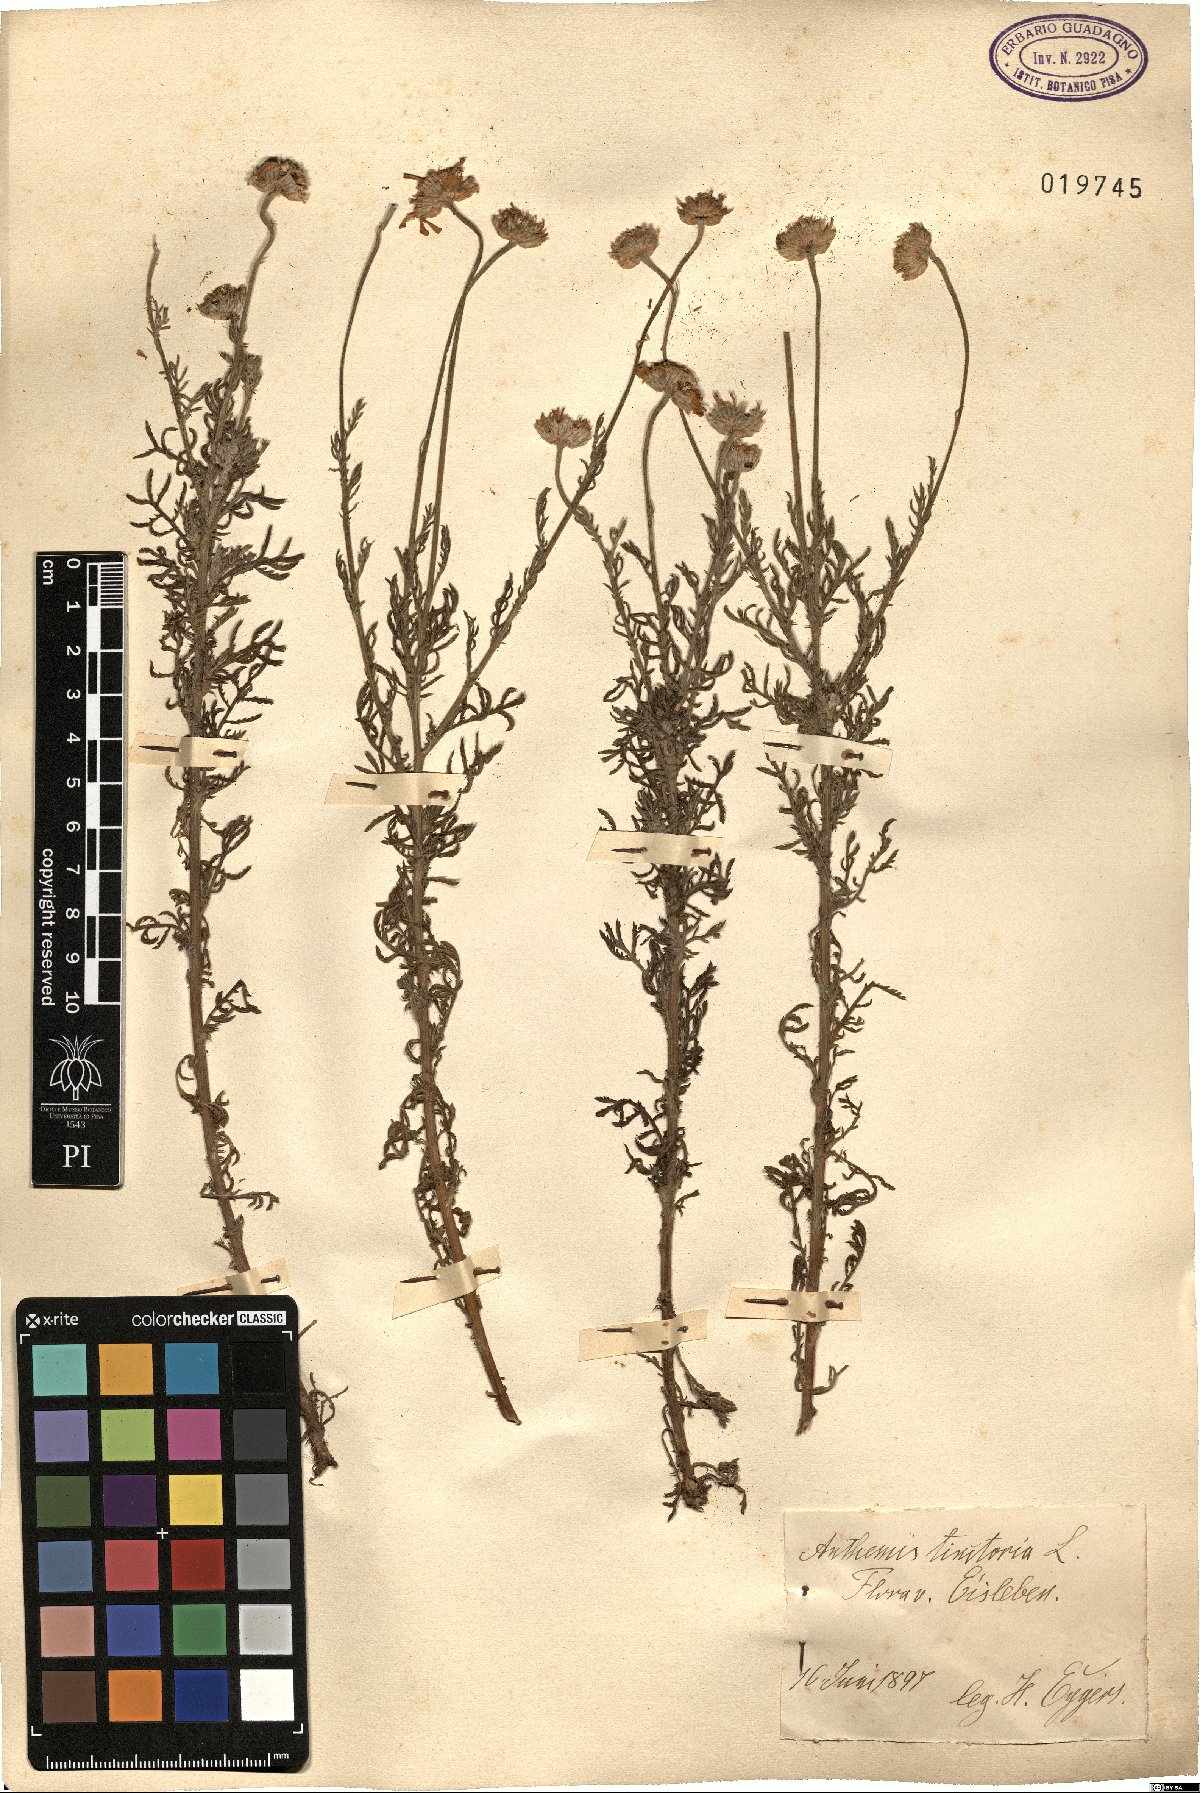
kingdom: Plantae
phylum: Tracheophyta
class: Magnoliopsida
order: Asterales
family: Asteraceae
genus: Cota
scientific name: Cota tinctoria
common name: Golden chamomile
